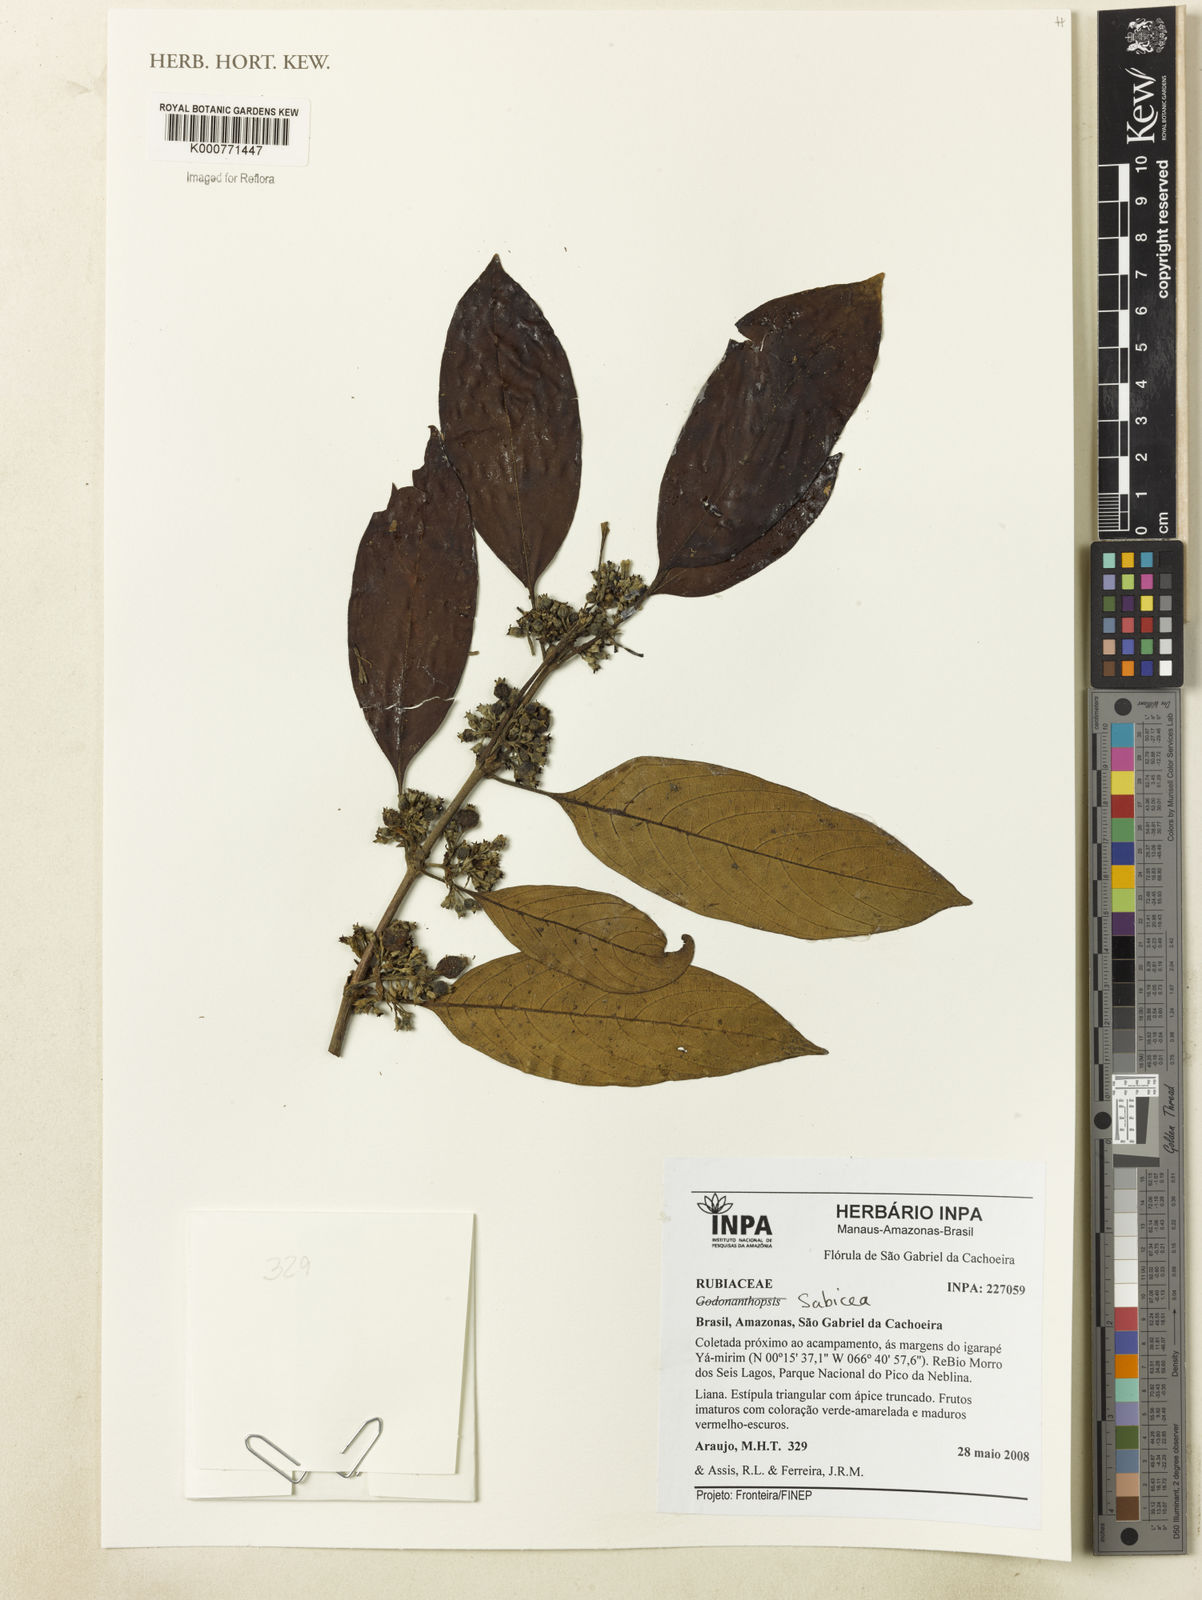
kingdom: Plantae
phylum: Tracheophyta
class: Magnoliopsida
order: Gentianales
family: Rubiaceae
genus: Sabicea
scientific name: Sabicea
